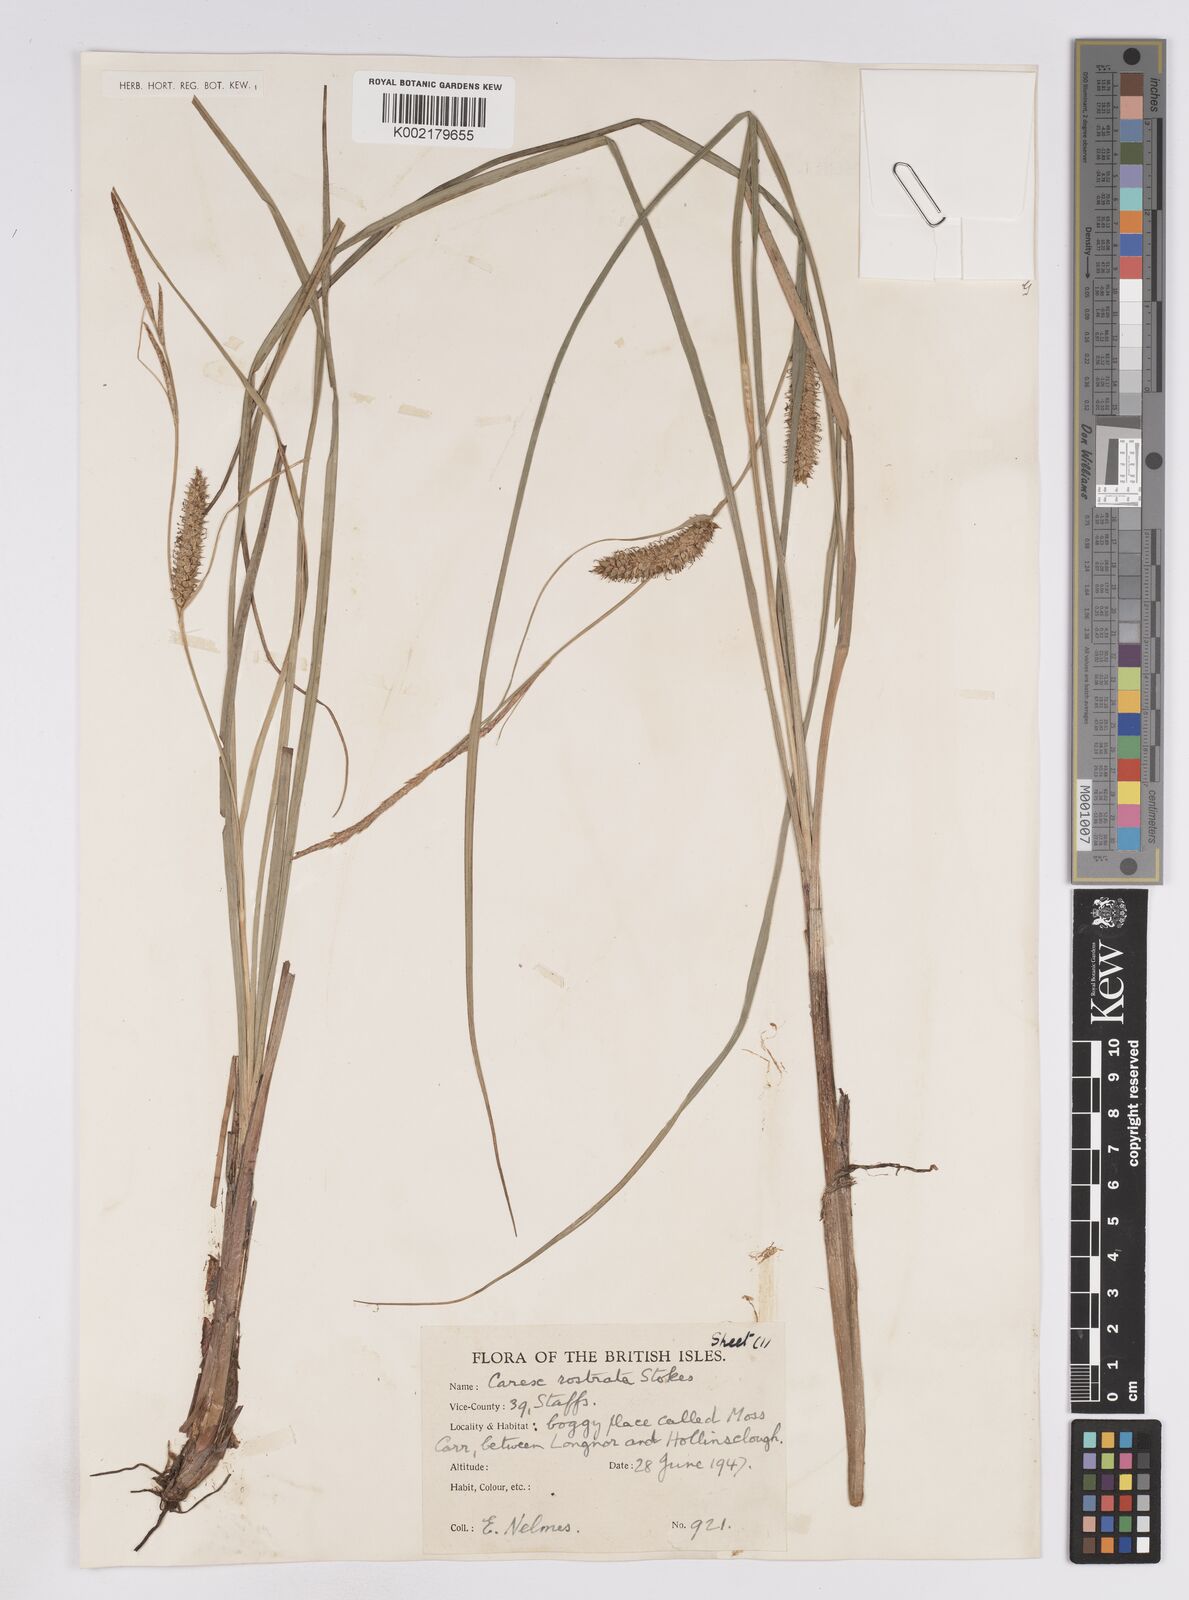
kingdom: Plantae
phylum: Tracheophyta
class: Liliopsida
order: Poales
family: Cyperaceae
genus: Carex
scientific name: Carex rostrata
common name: Bottle sedge
